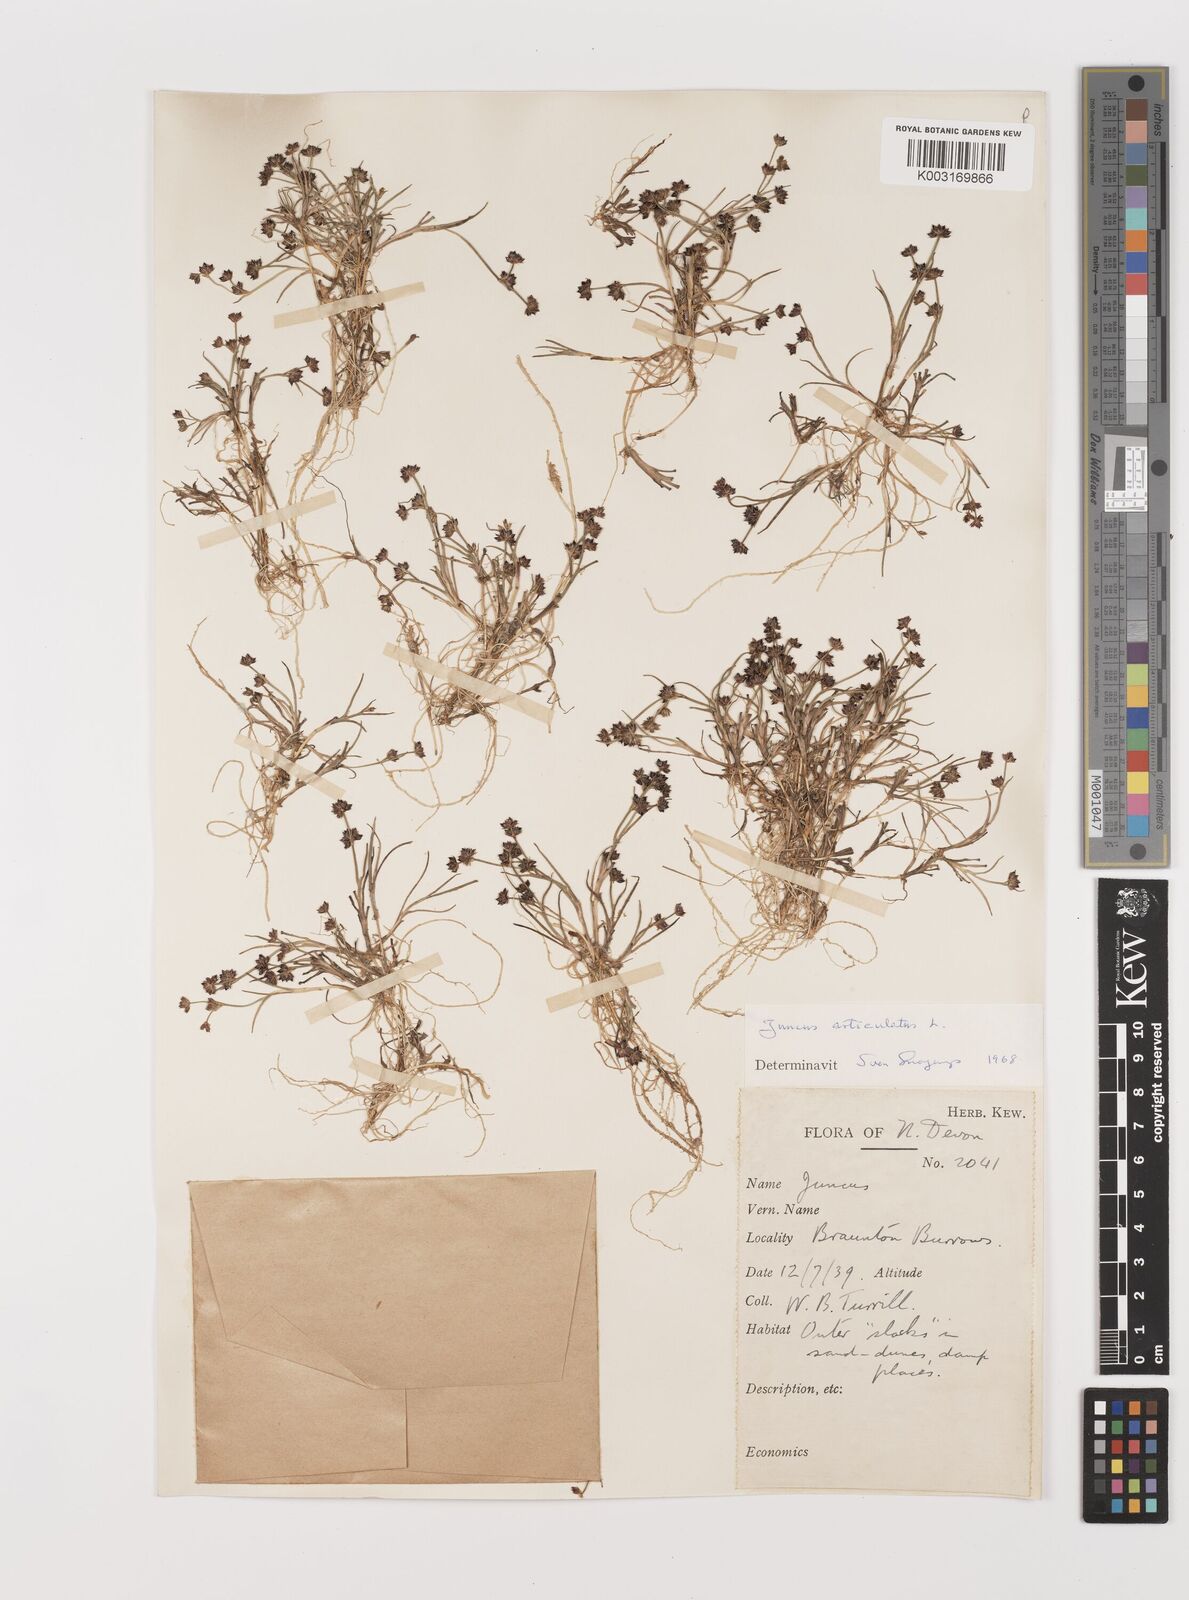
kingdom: Plantae
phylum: Tracheophyta
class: Liliopsida
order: Poales
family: Juncaceae
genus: Juncus
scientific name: Juncus articulatus
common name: Jointed rush
